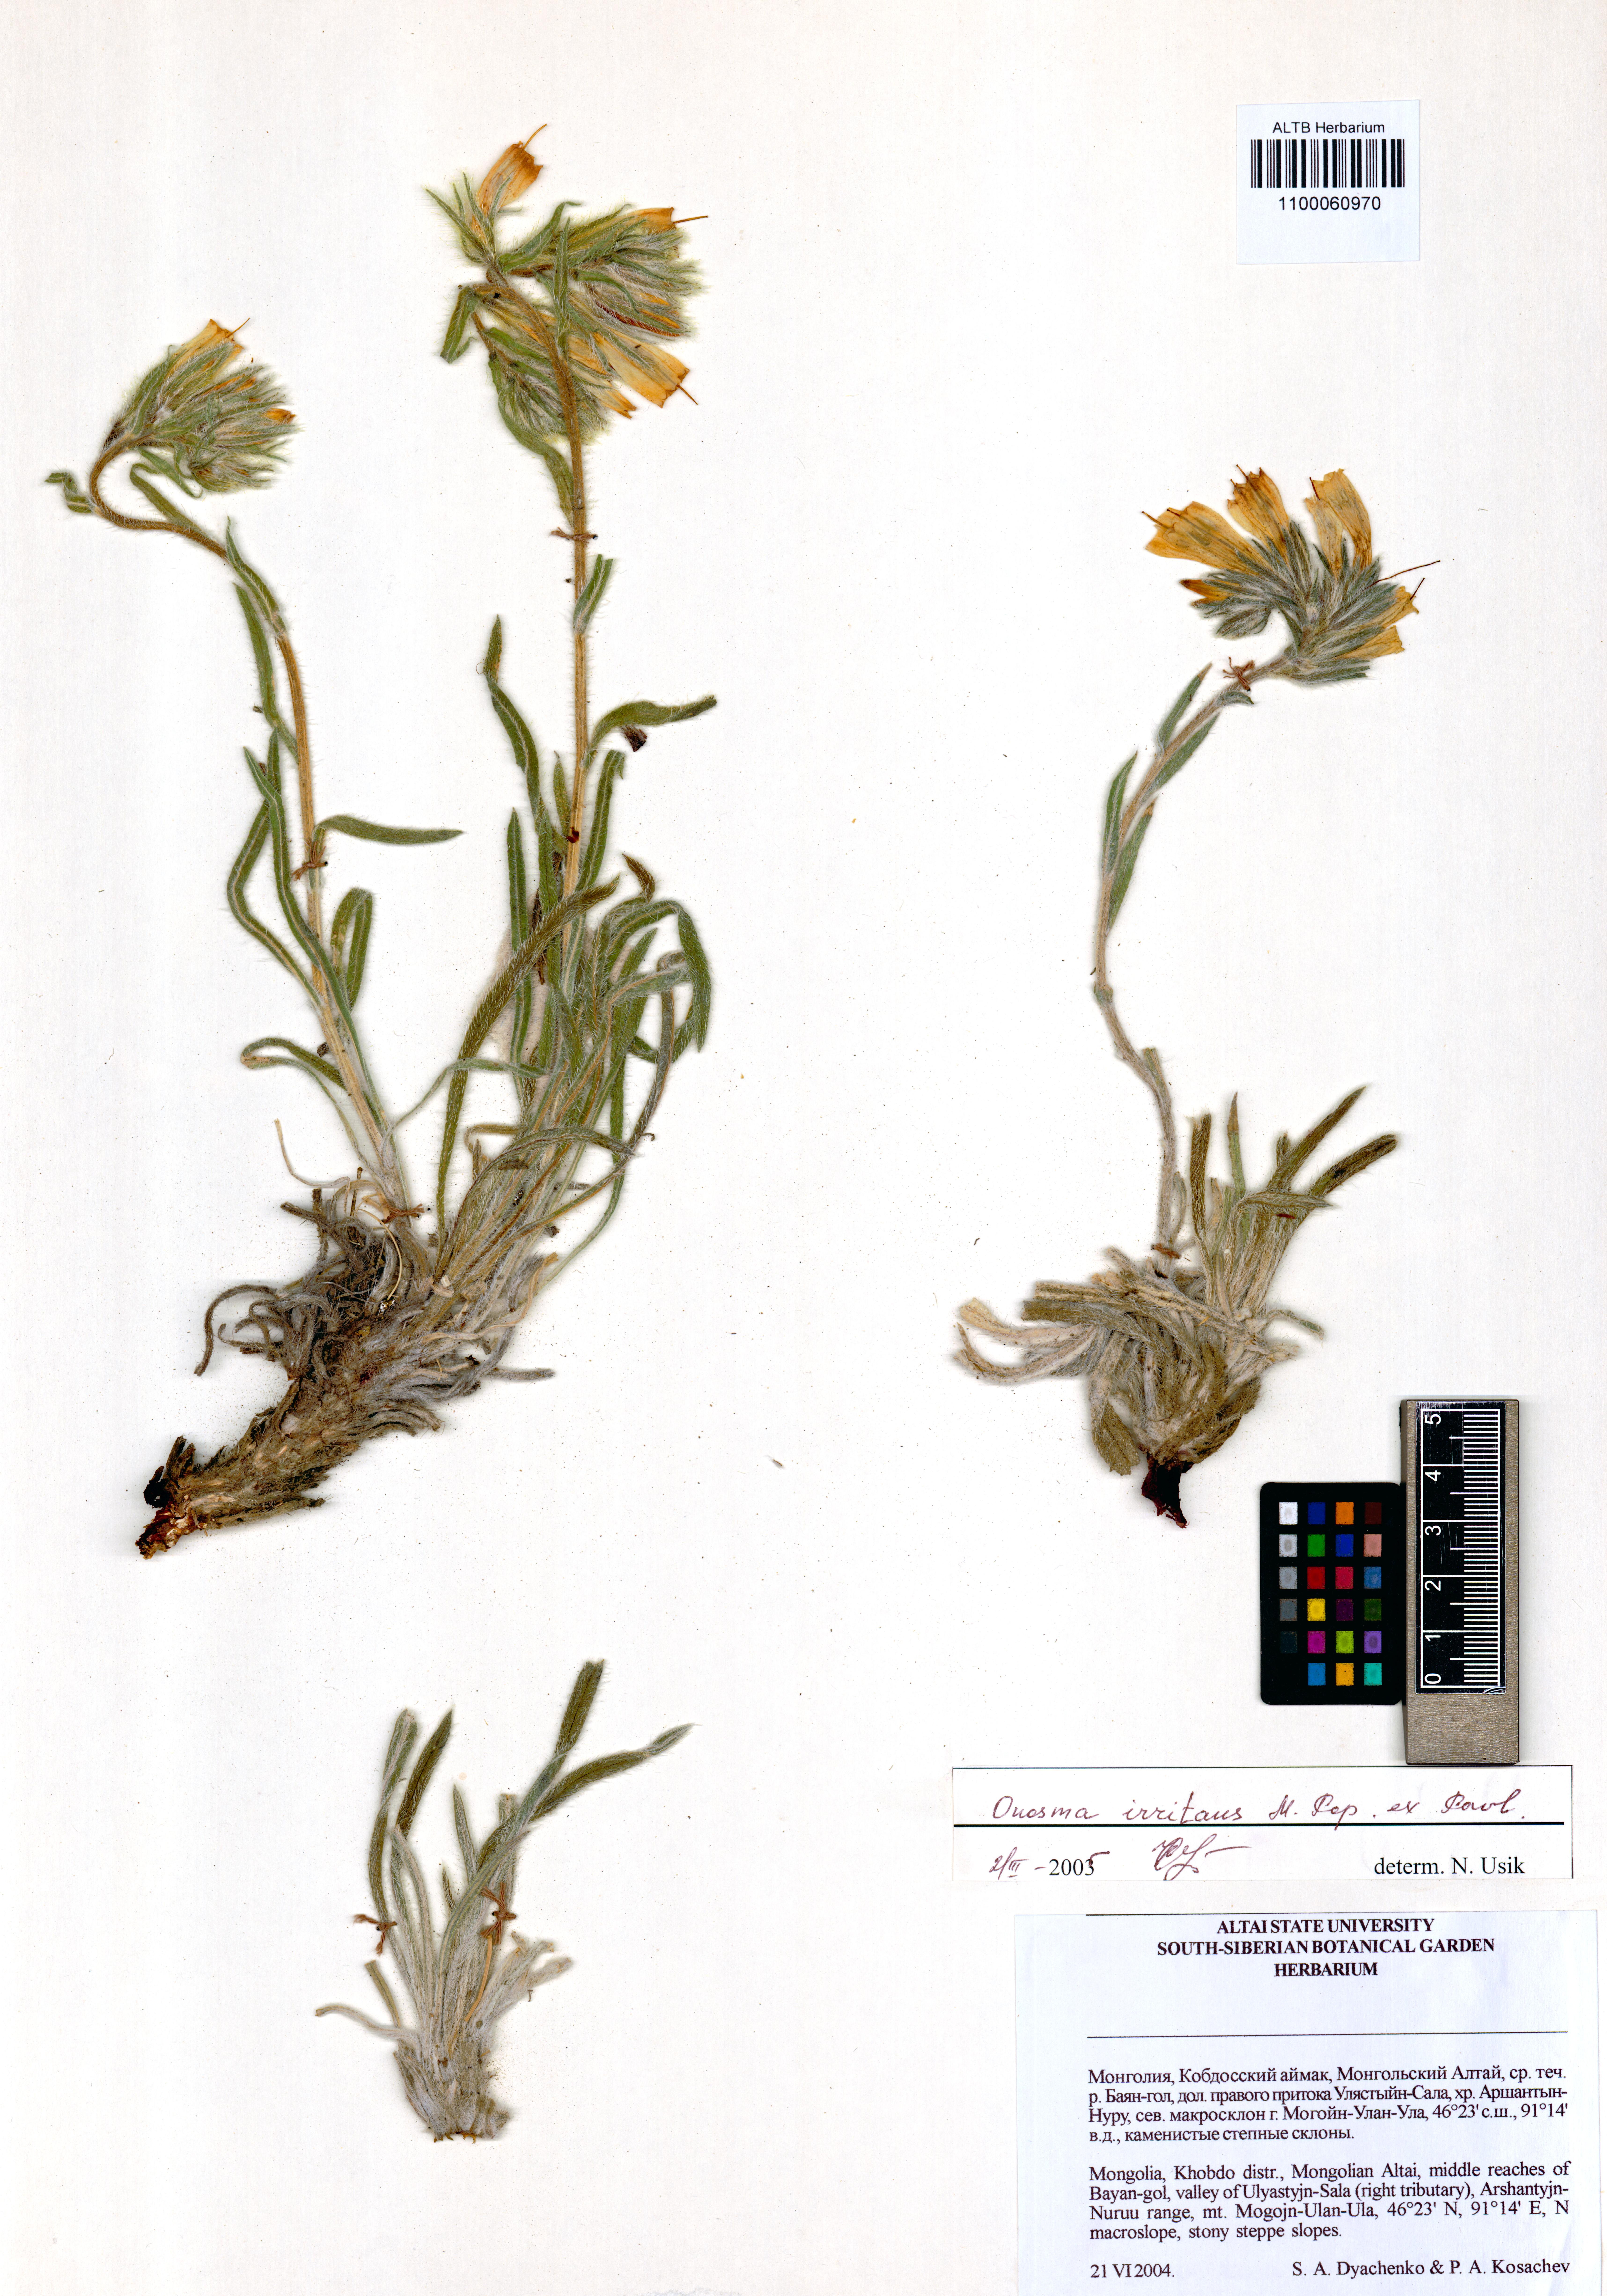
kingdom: Plantae
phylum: Tracheophyta
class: Magnoliopsida
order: Boraginales
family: Boraginaceae
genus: Onosma
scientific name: Onosma irritans
